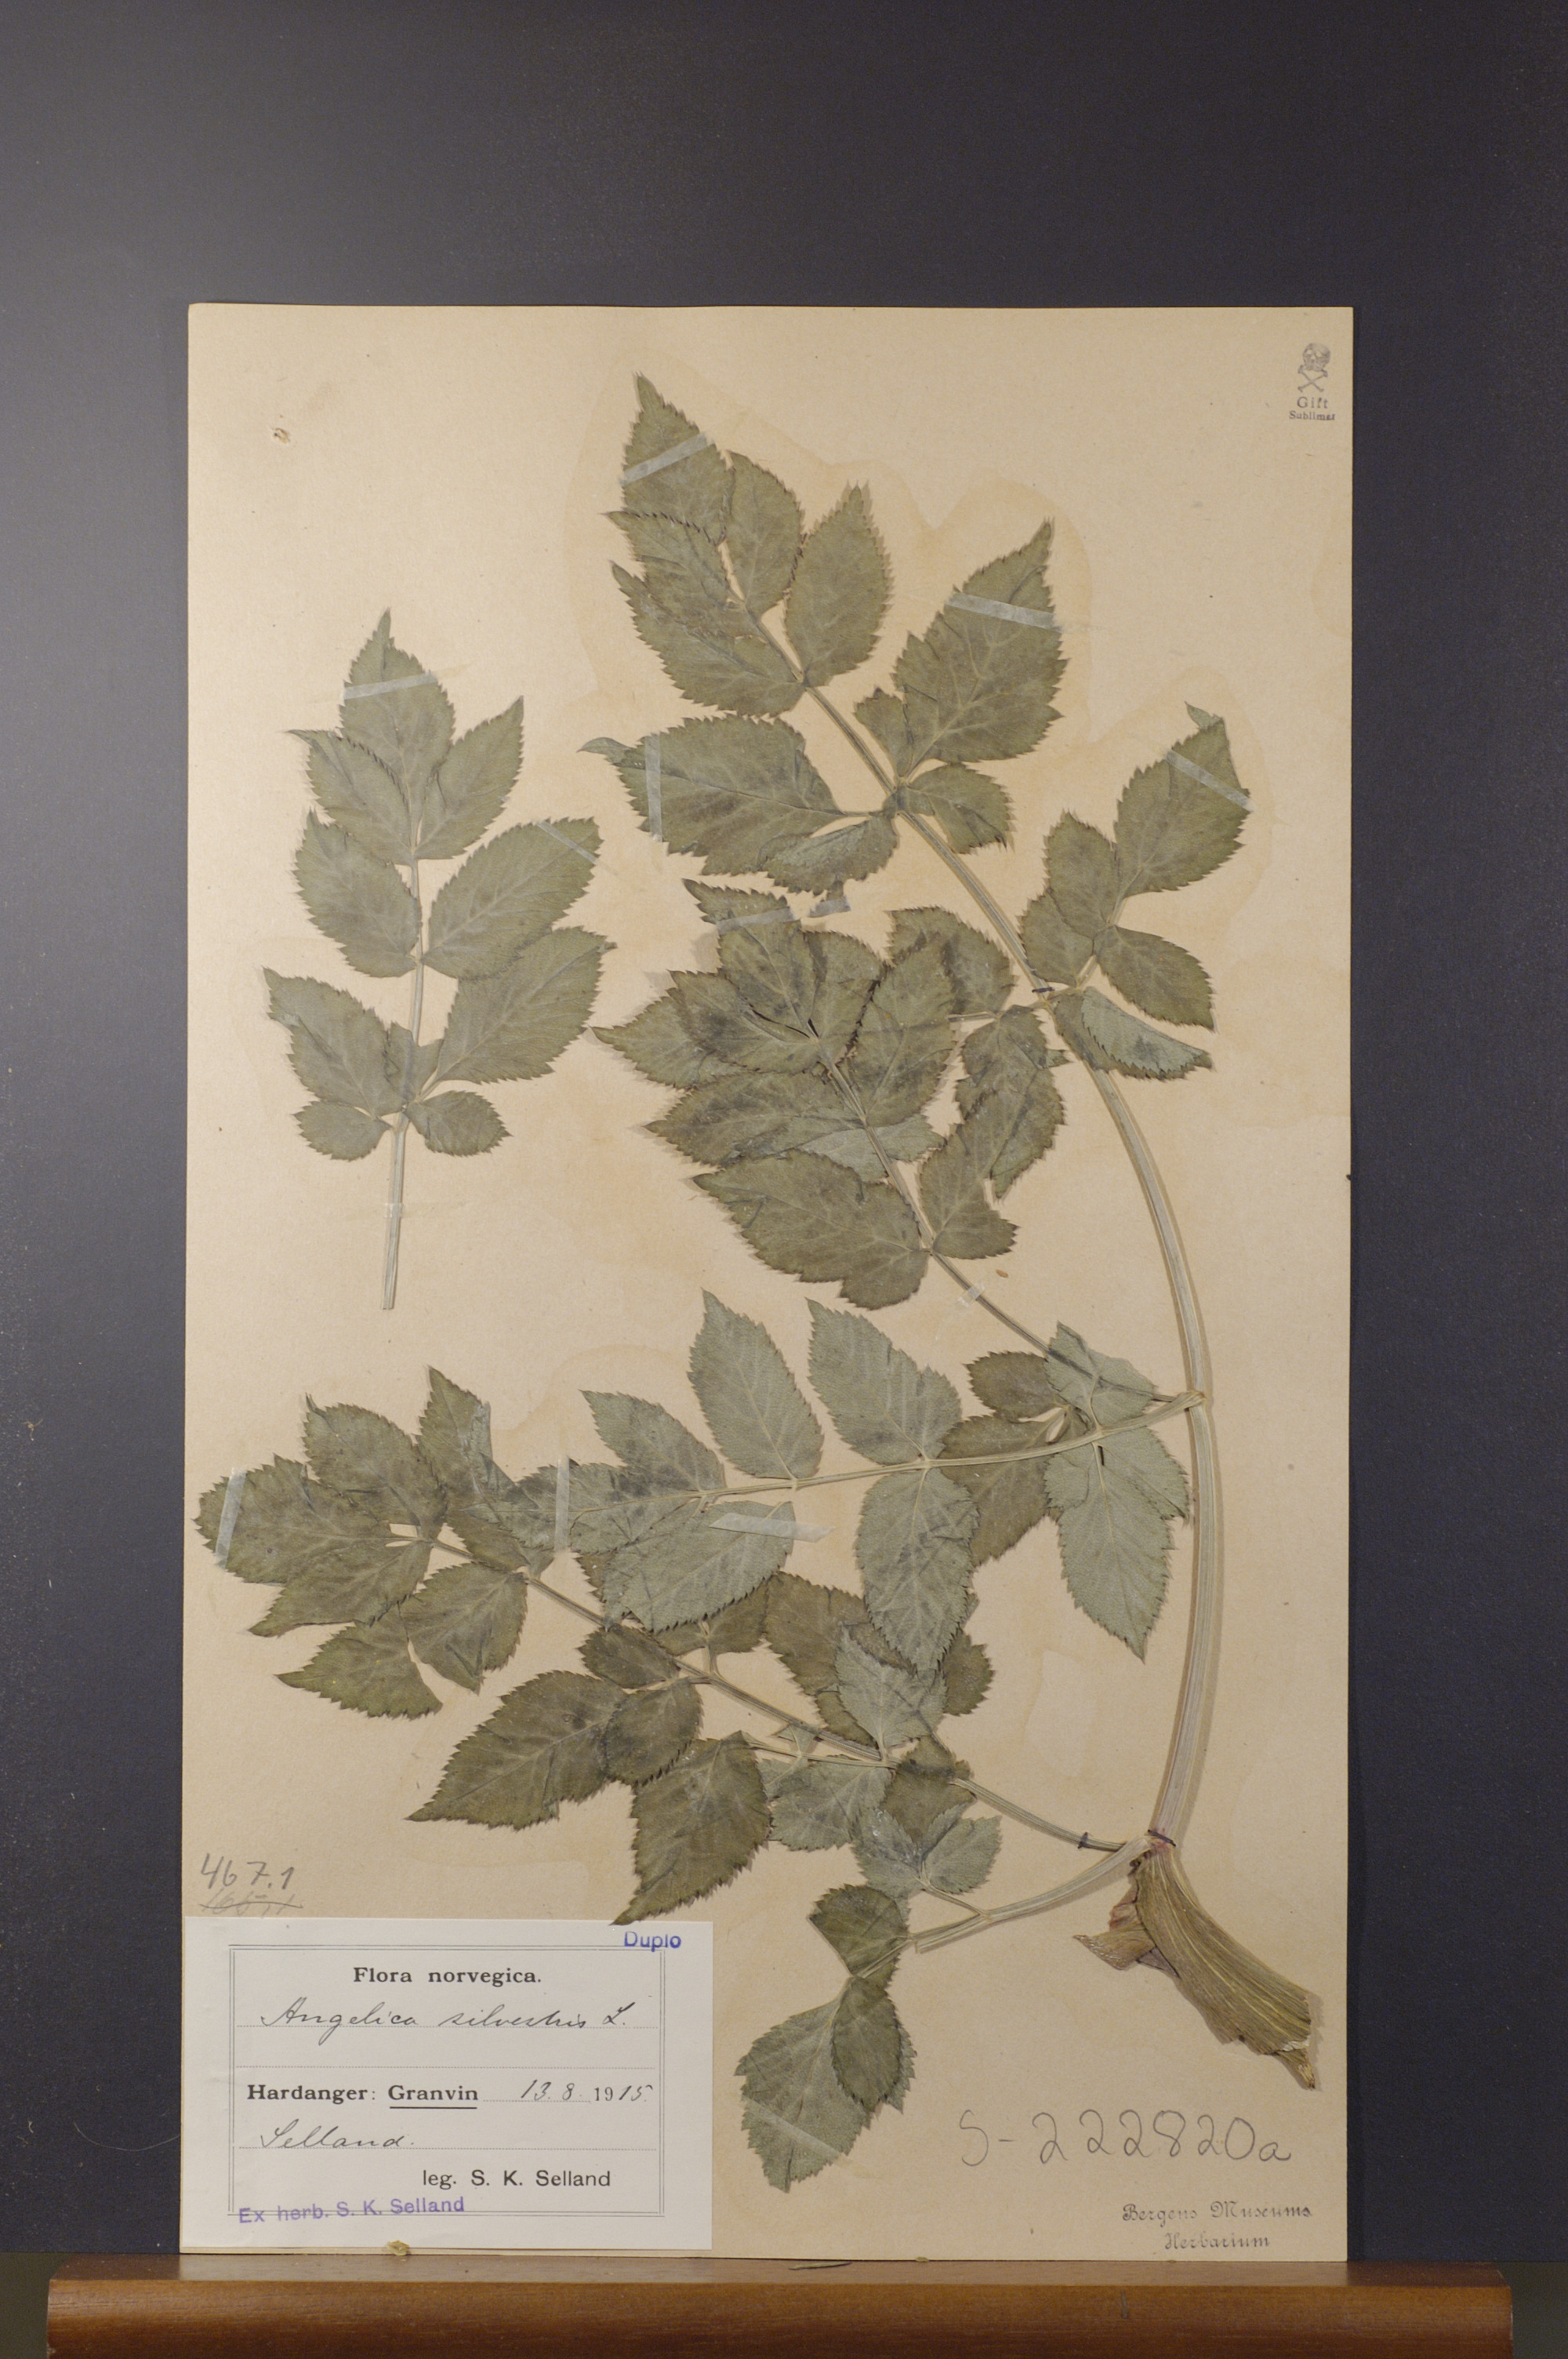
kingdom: Plantae
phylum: Tracheophyta
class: Magnoliopsida
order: Apiales
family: Apiaceae
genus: Angelica
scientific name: Angelica sylvestris
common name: Wild angelica
